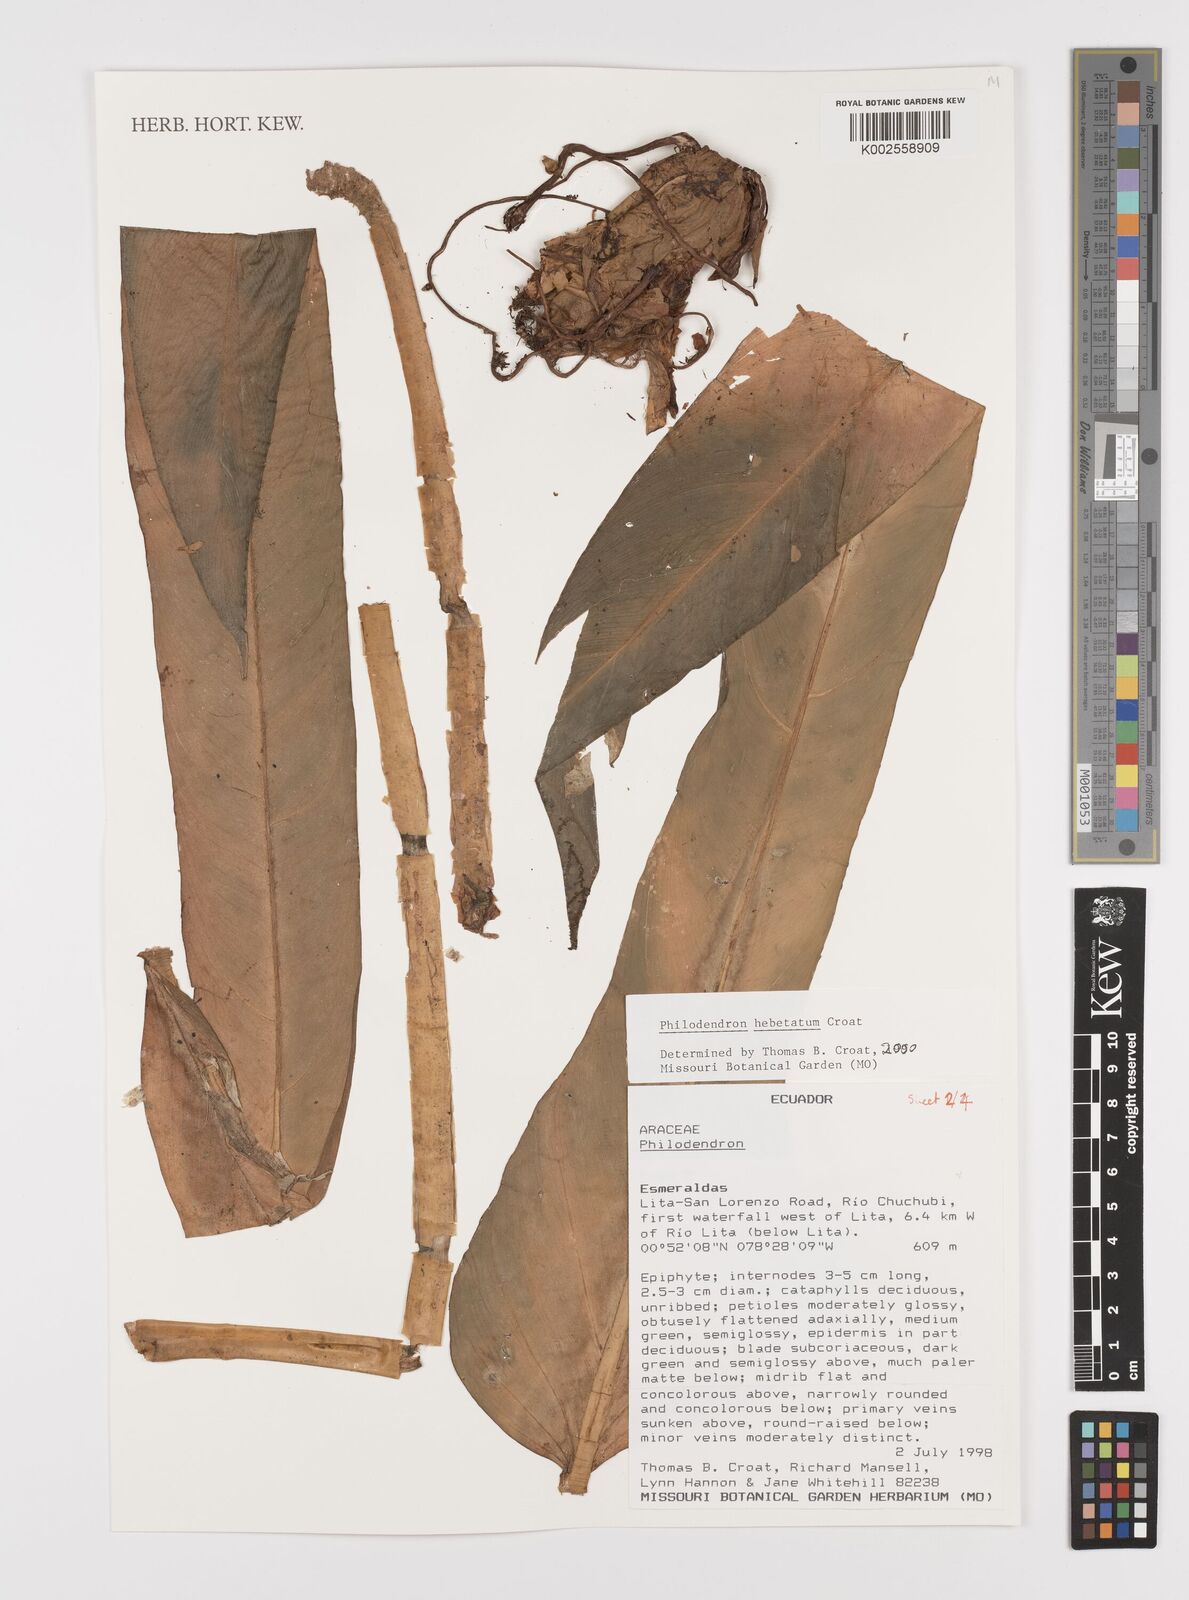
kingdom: Plantae
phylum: Tracheophyta
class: Liliopsida
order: Alismatales
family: Araceae
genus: Philodendron
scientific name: Philodendron hebetatum
